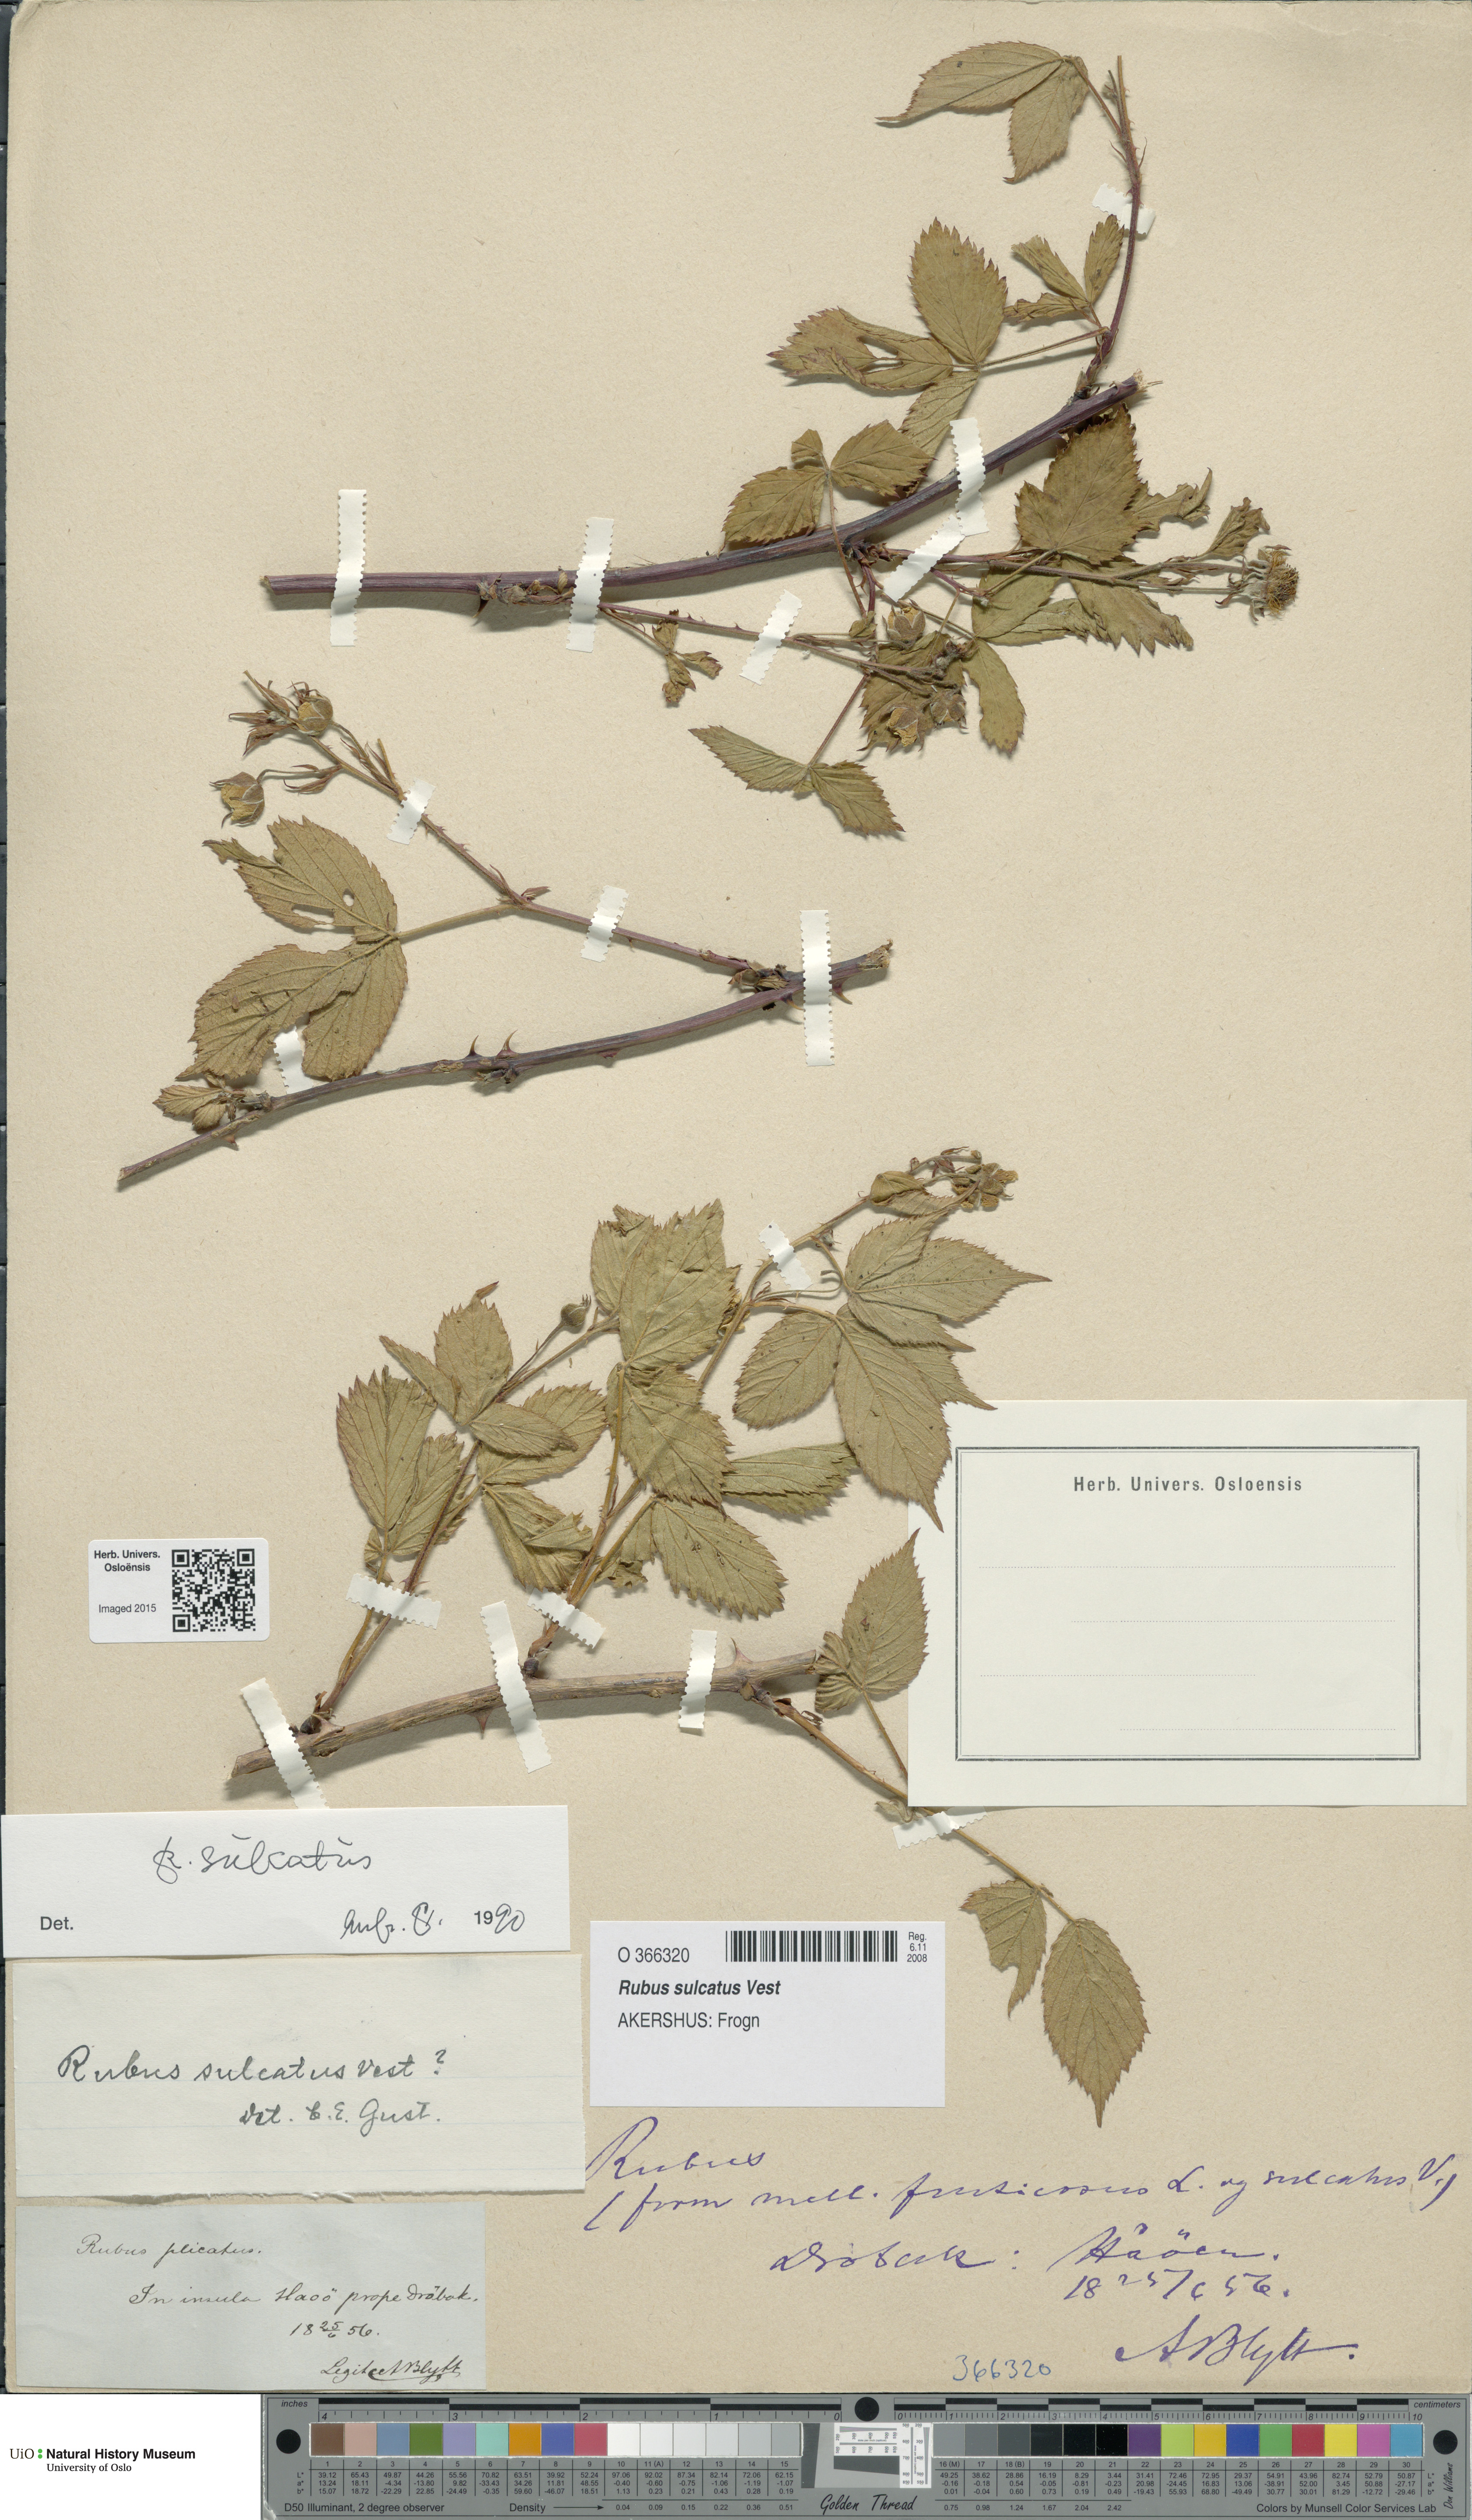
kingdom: Plantae
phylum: Tracheophyta
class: Magnoliopsida
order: Rosales
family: Rosaceae
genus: Rubus
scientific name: Rubus sulcatus
